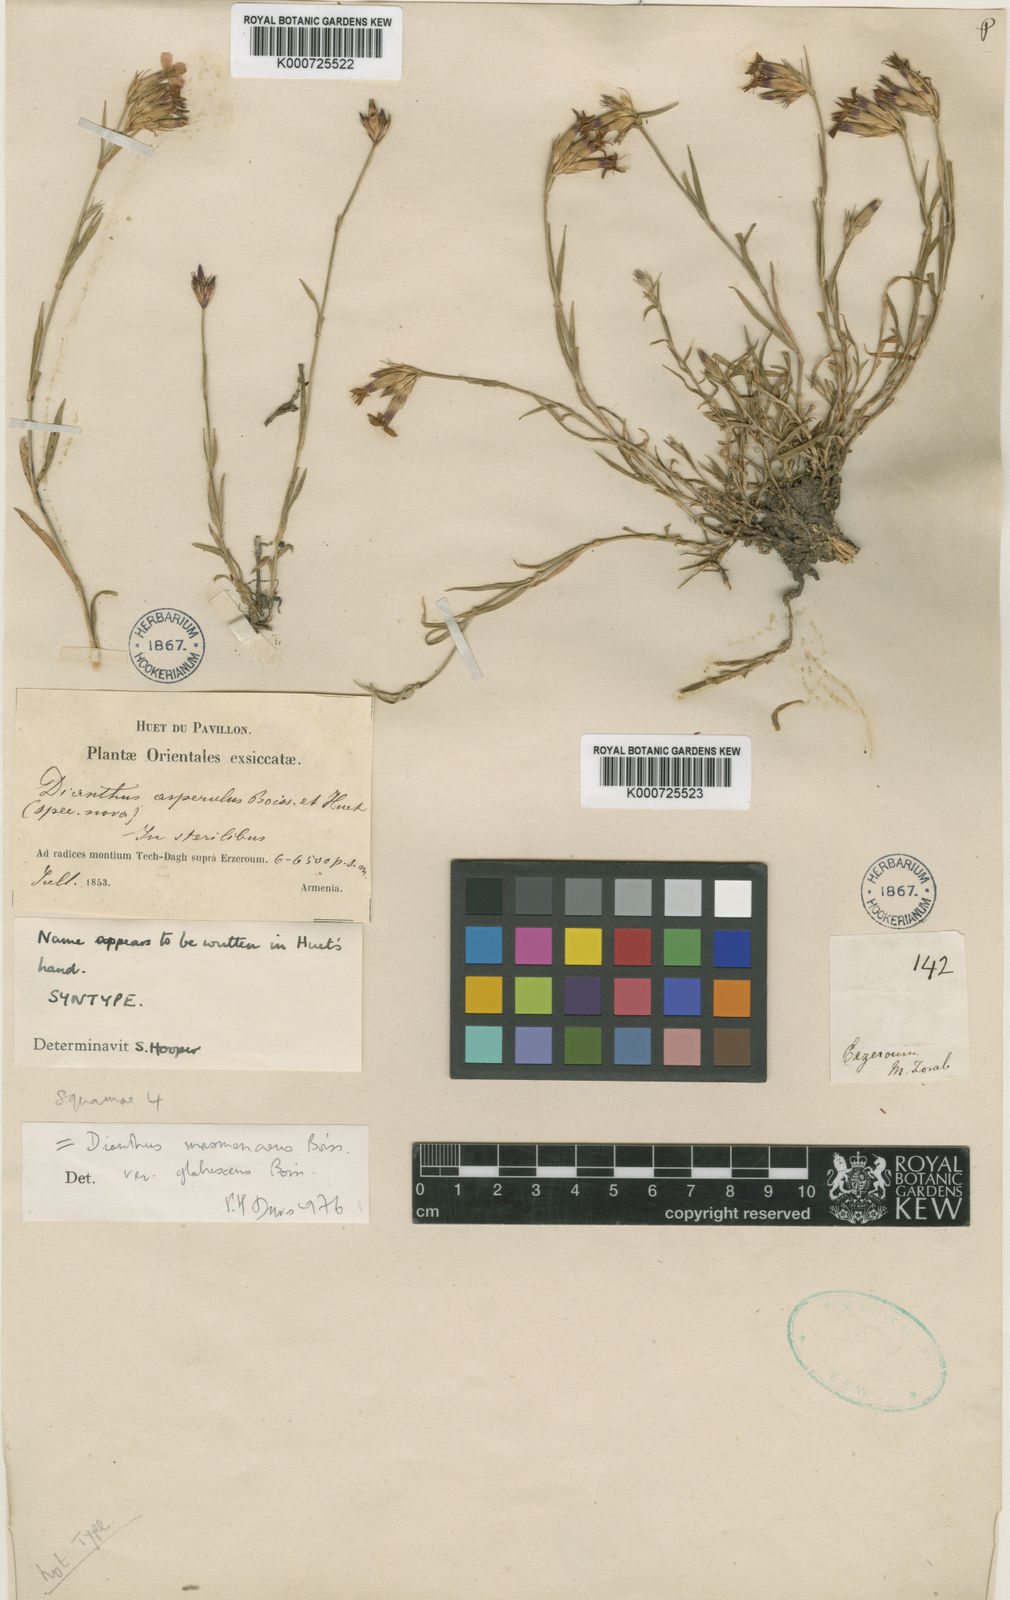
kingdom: Plantae
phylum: Tracheophyta
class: Magnoliopsida
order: Caryophyllales
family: Caryophyllaceae
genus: Dianthus
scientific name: Dianthus masmenaeus
